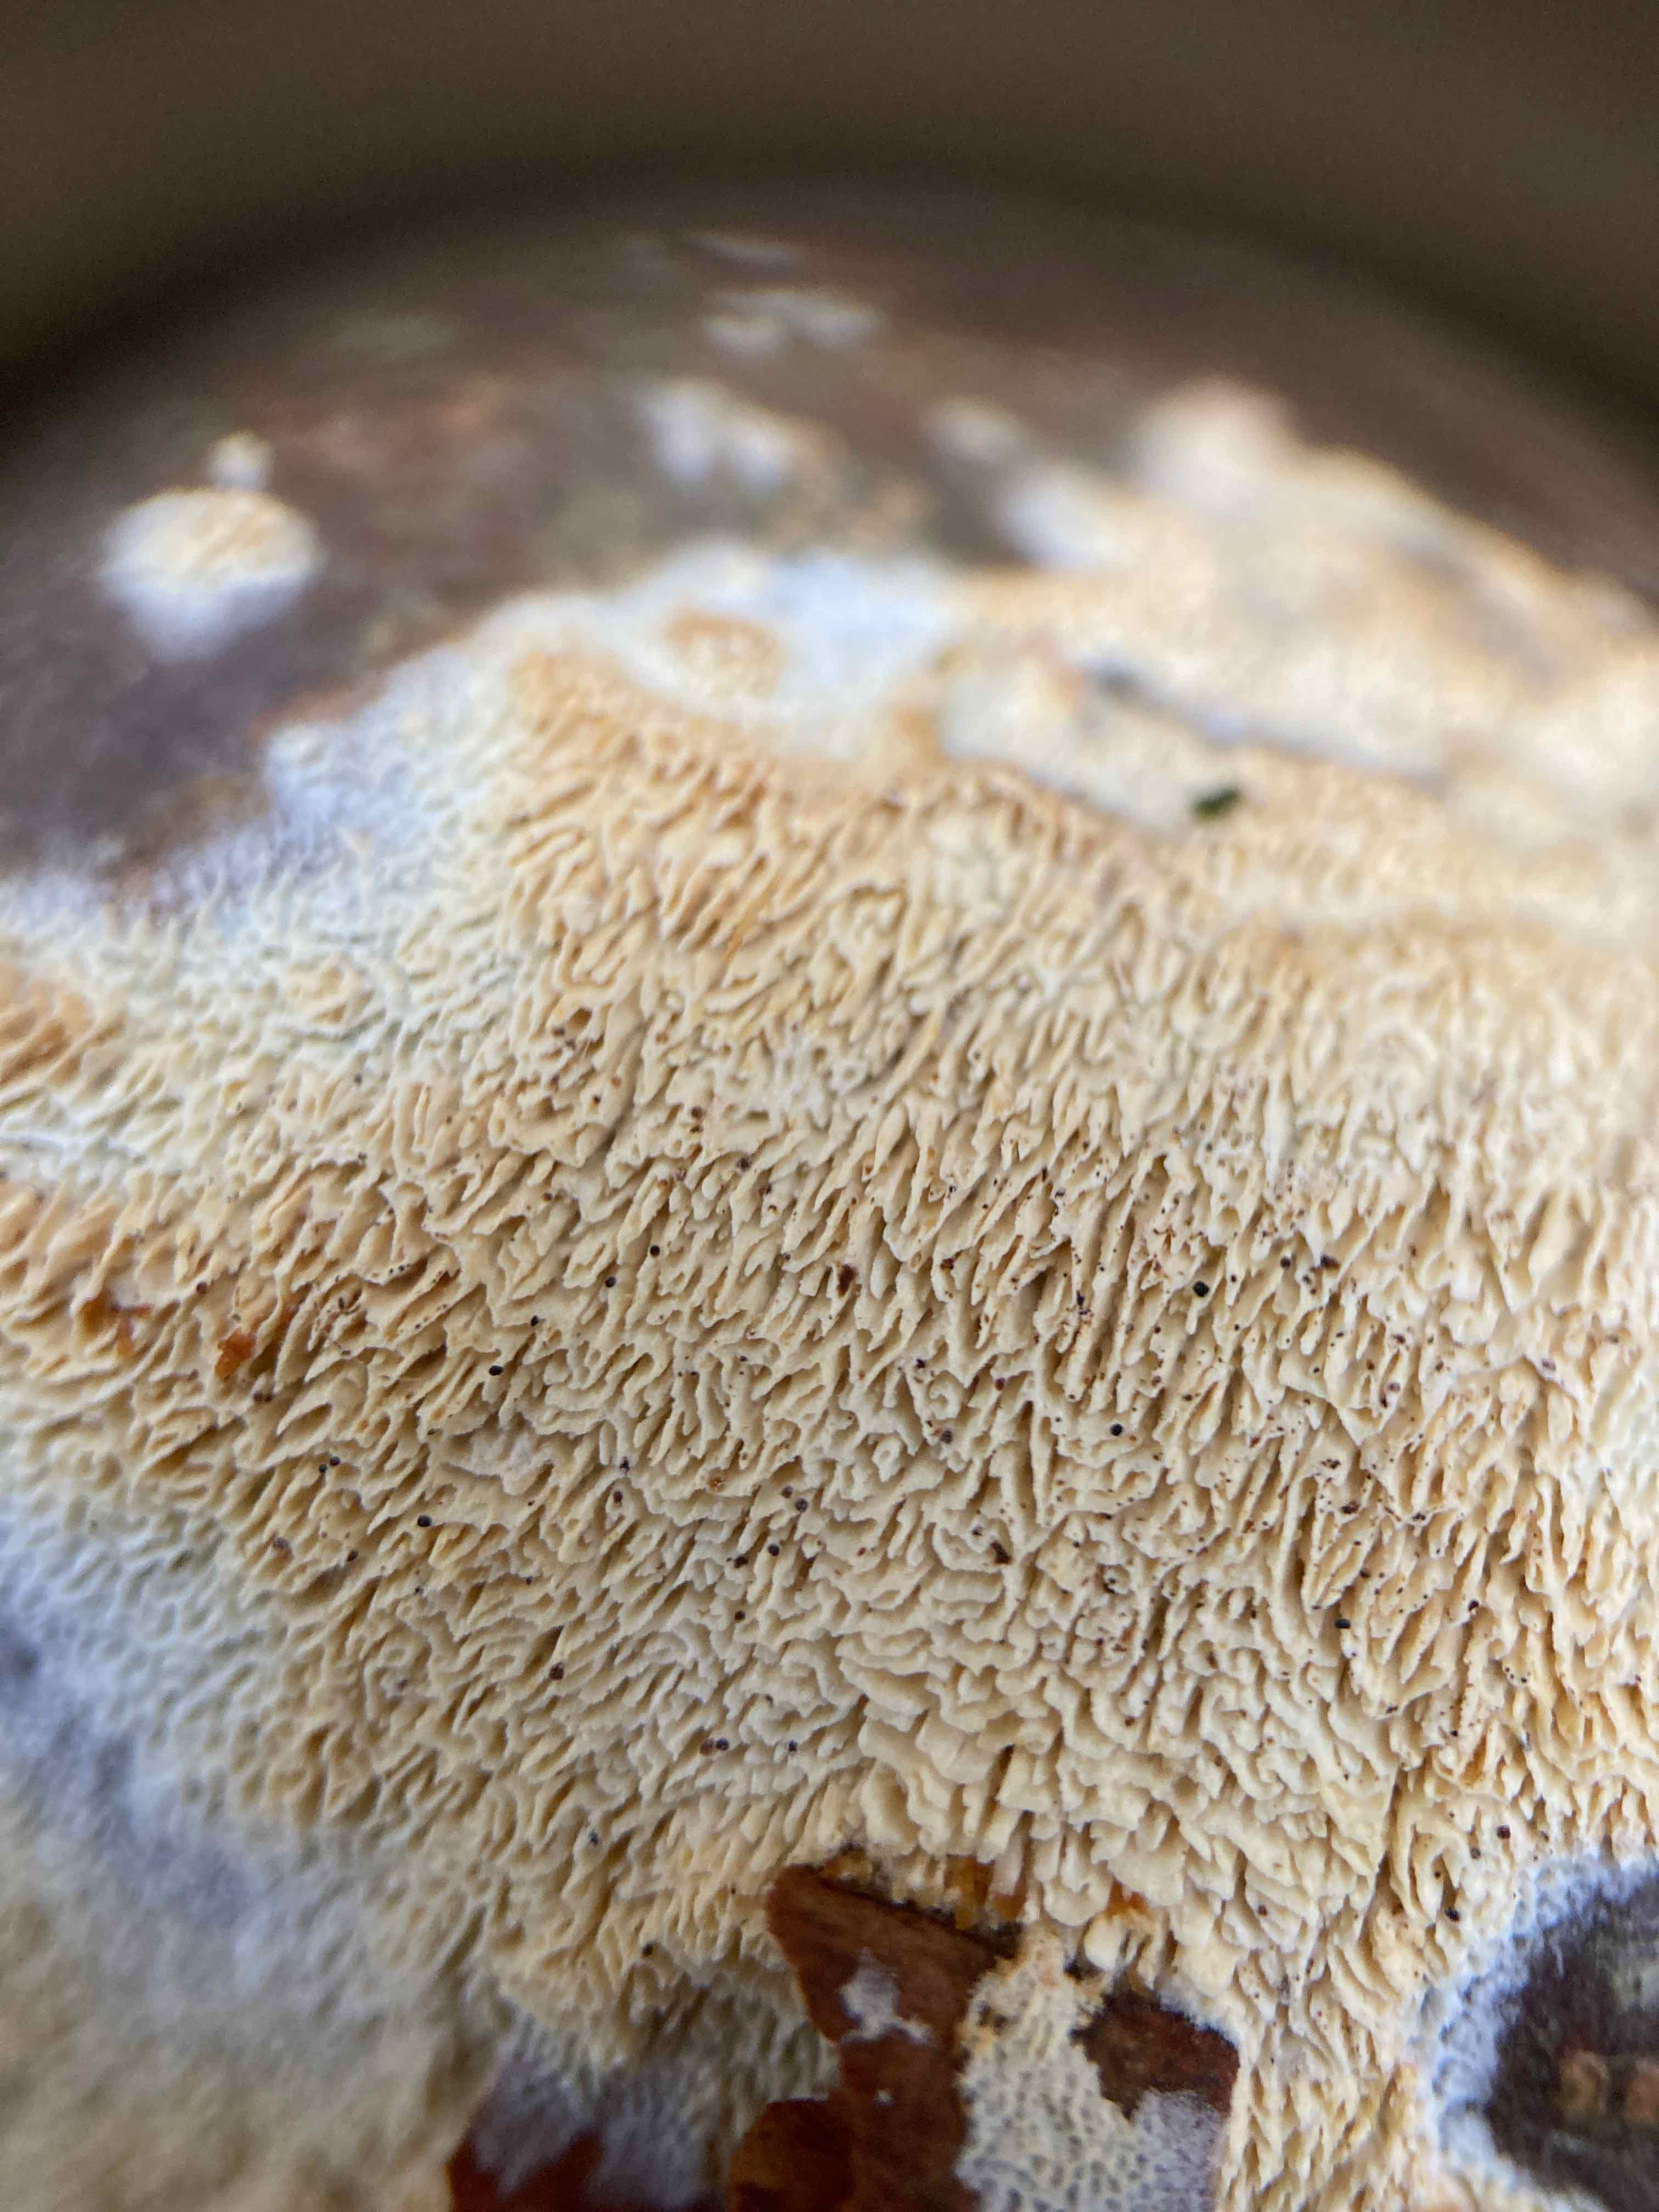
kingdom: Fungi
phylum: Basidiomycota
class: Agaricomycetes
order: Hymenochaetales
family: Schizoporaceae
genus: Xylodon
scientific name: Xylodon subtropicus
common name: labyrint-tandsvamp
